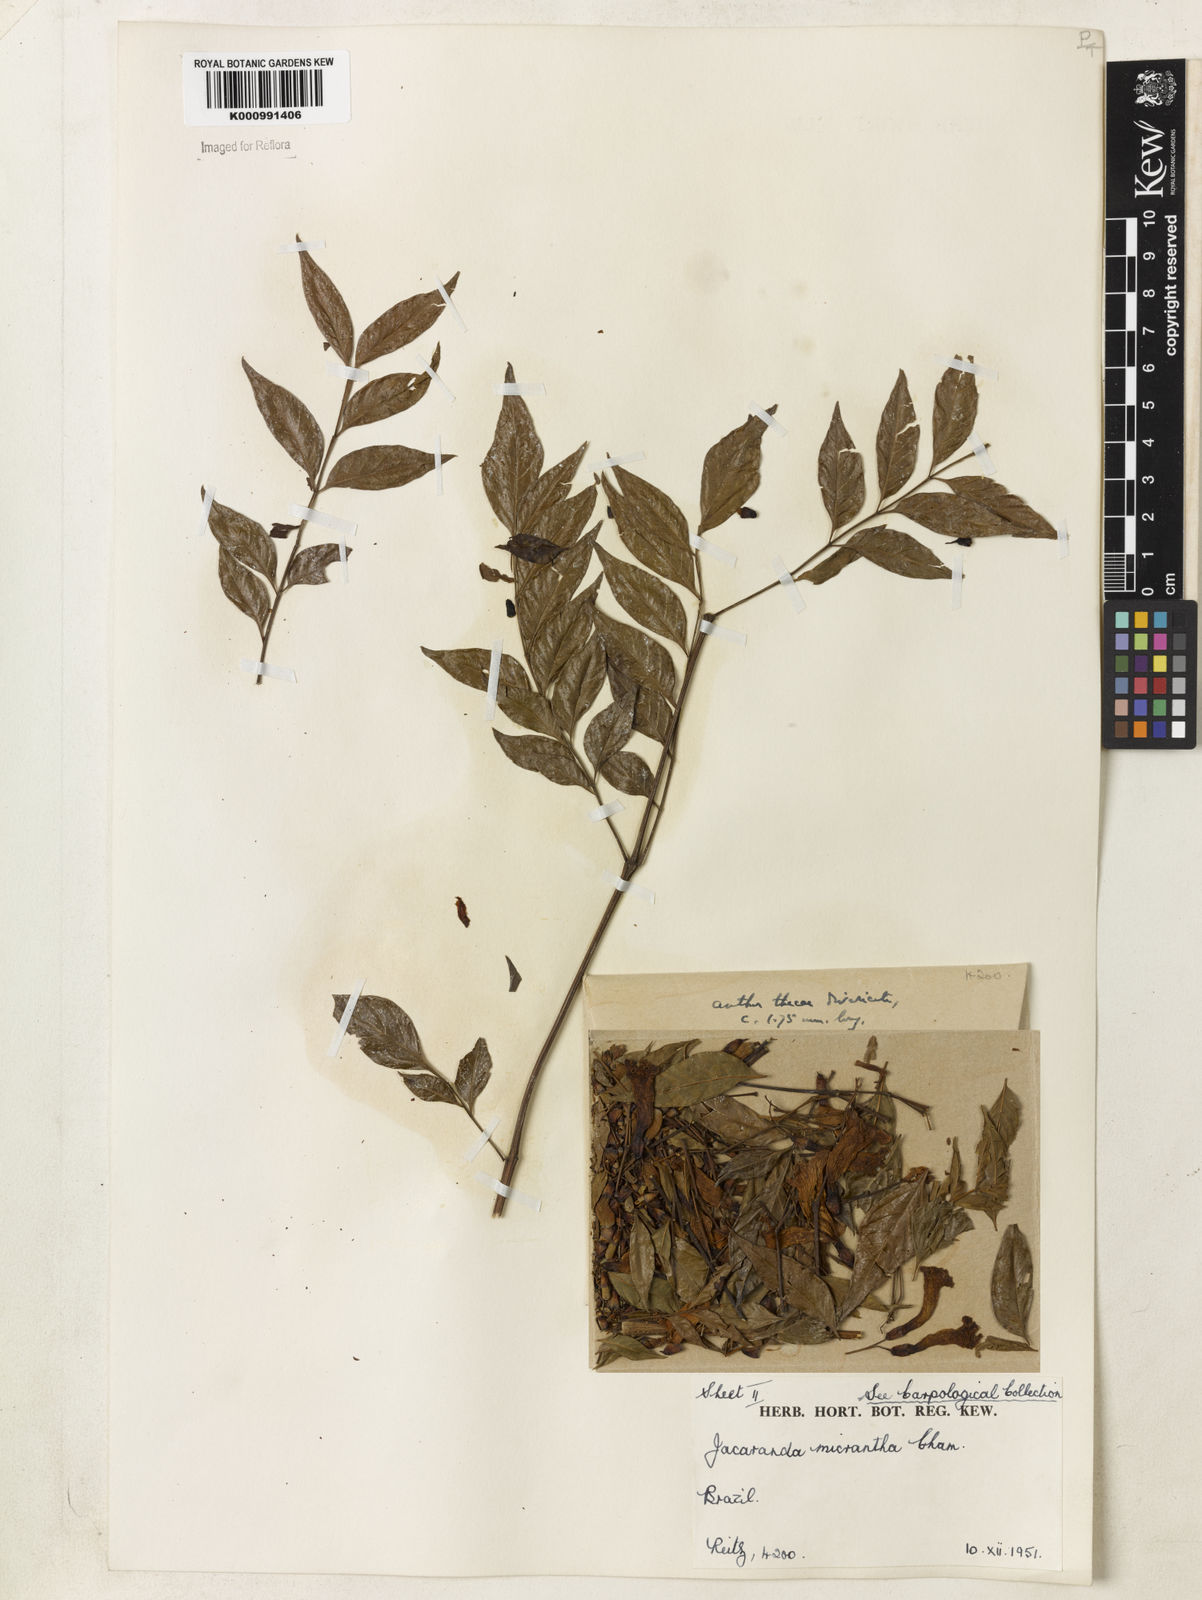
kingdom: Plantae
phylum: Tracheophyta
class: Magnoliopsida
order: Lamiales
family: Bignoniaceae
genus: Jacaranda
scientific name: Jacaranda micrantha
